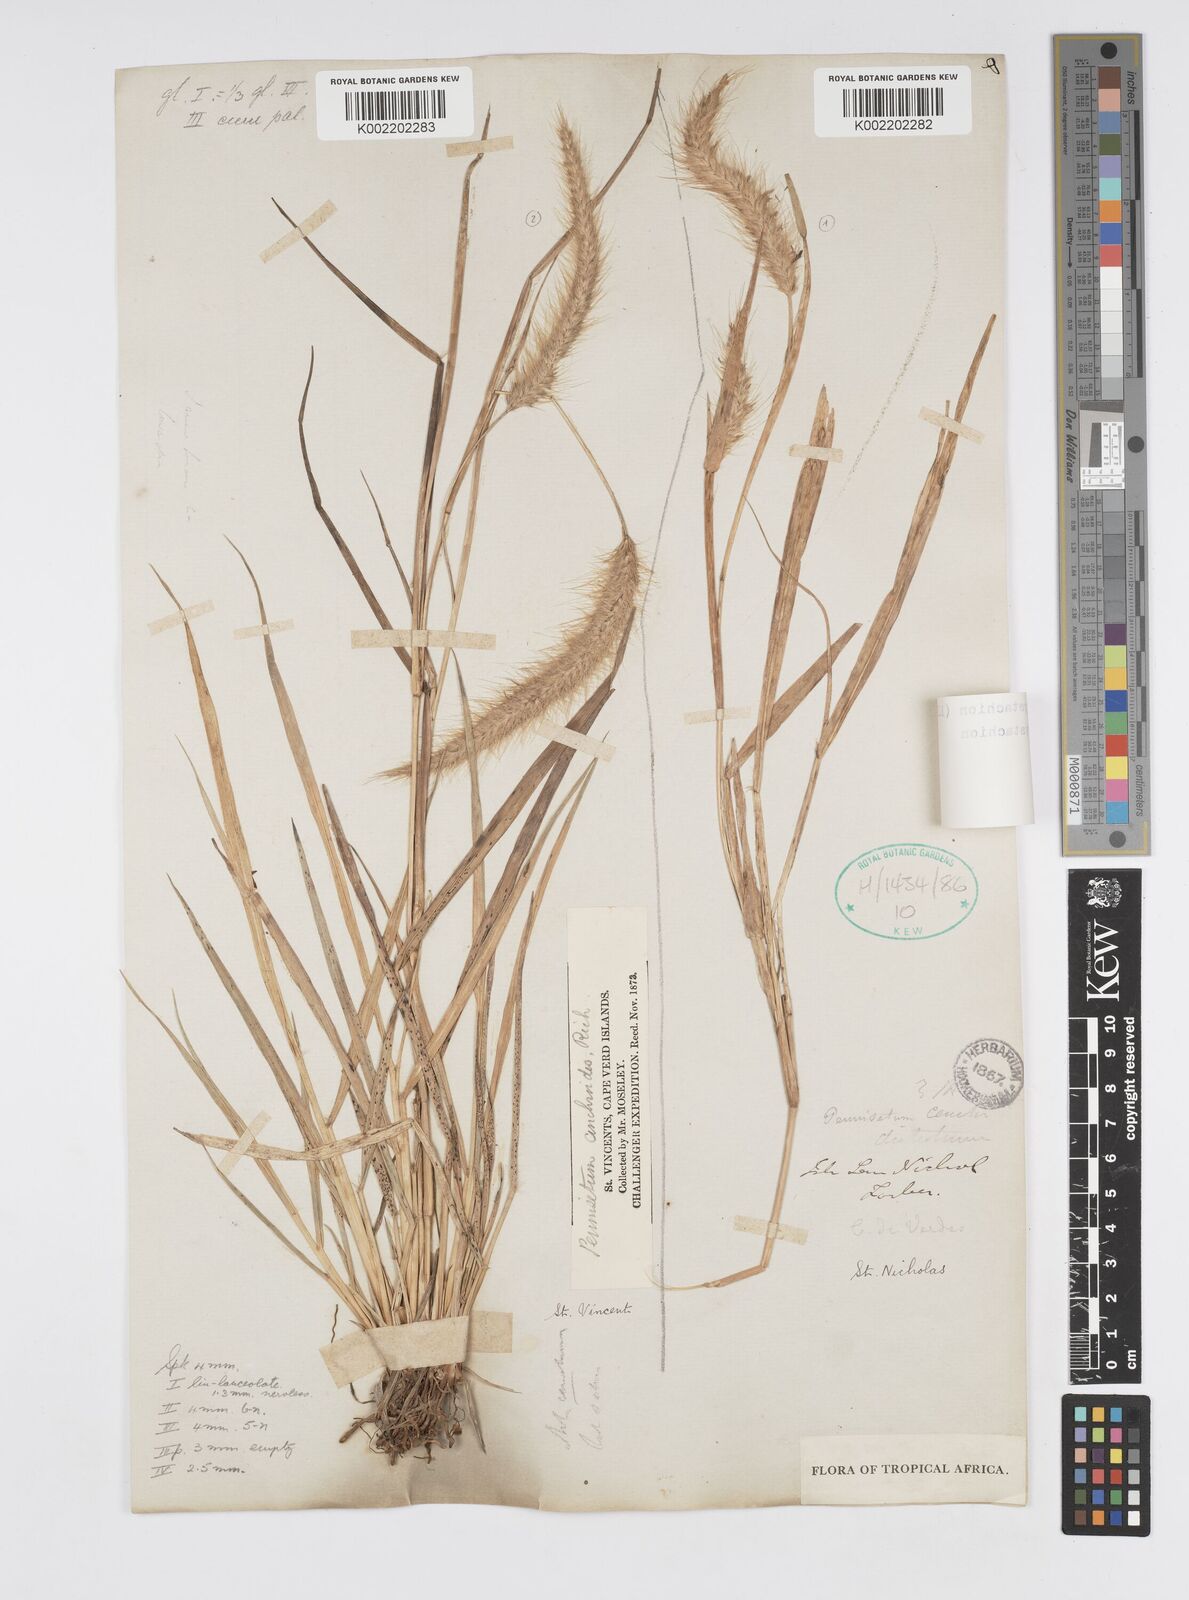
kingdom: Plantae
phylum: Tracheophyta
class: Liliopsida
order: Poales
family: Poaceae
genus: Setaria
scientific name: Setaria parviflora
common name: Knotroot bristle-grass
